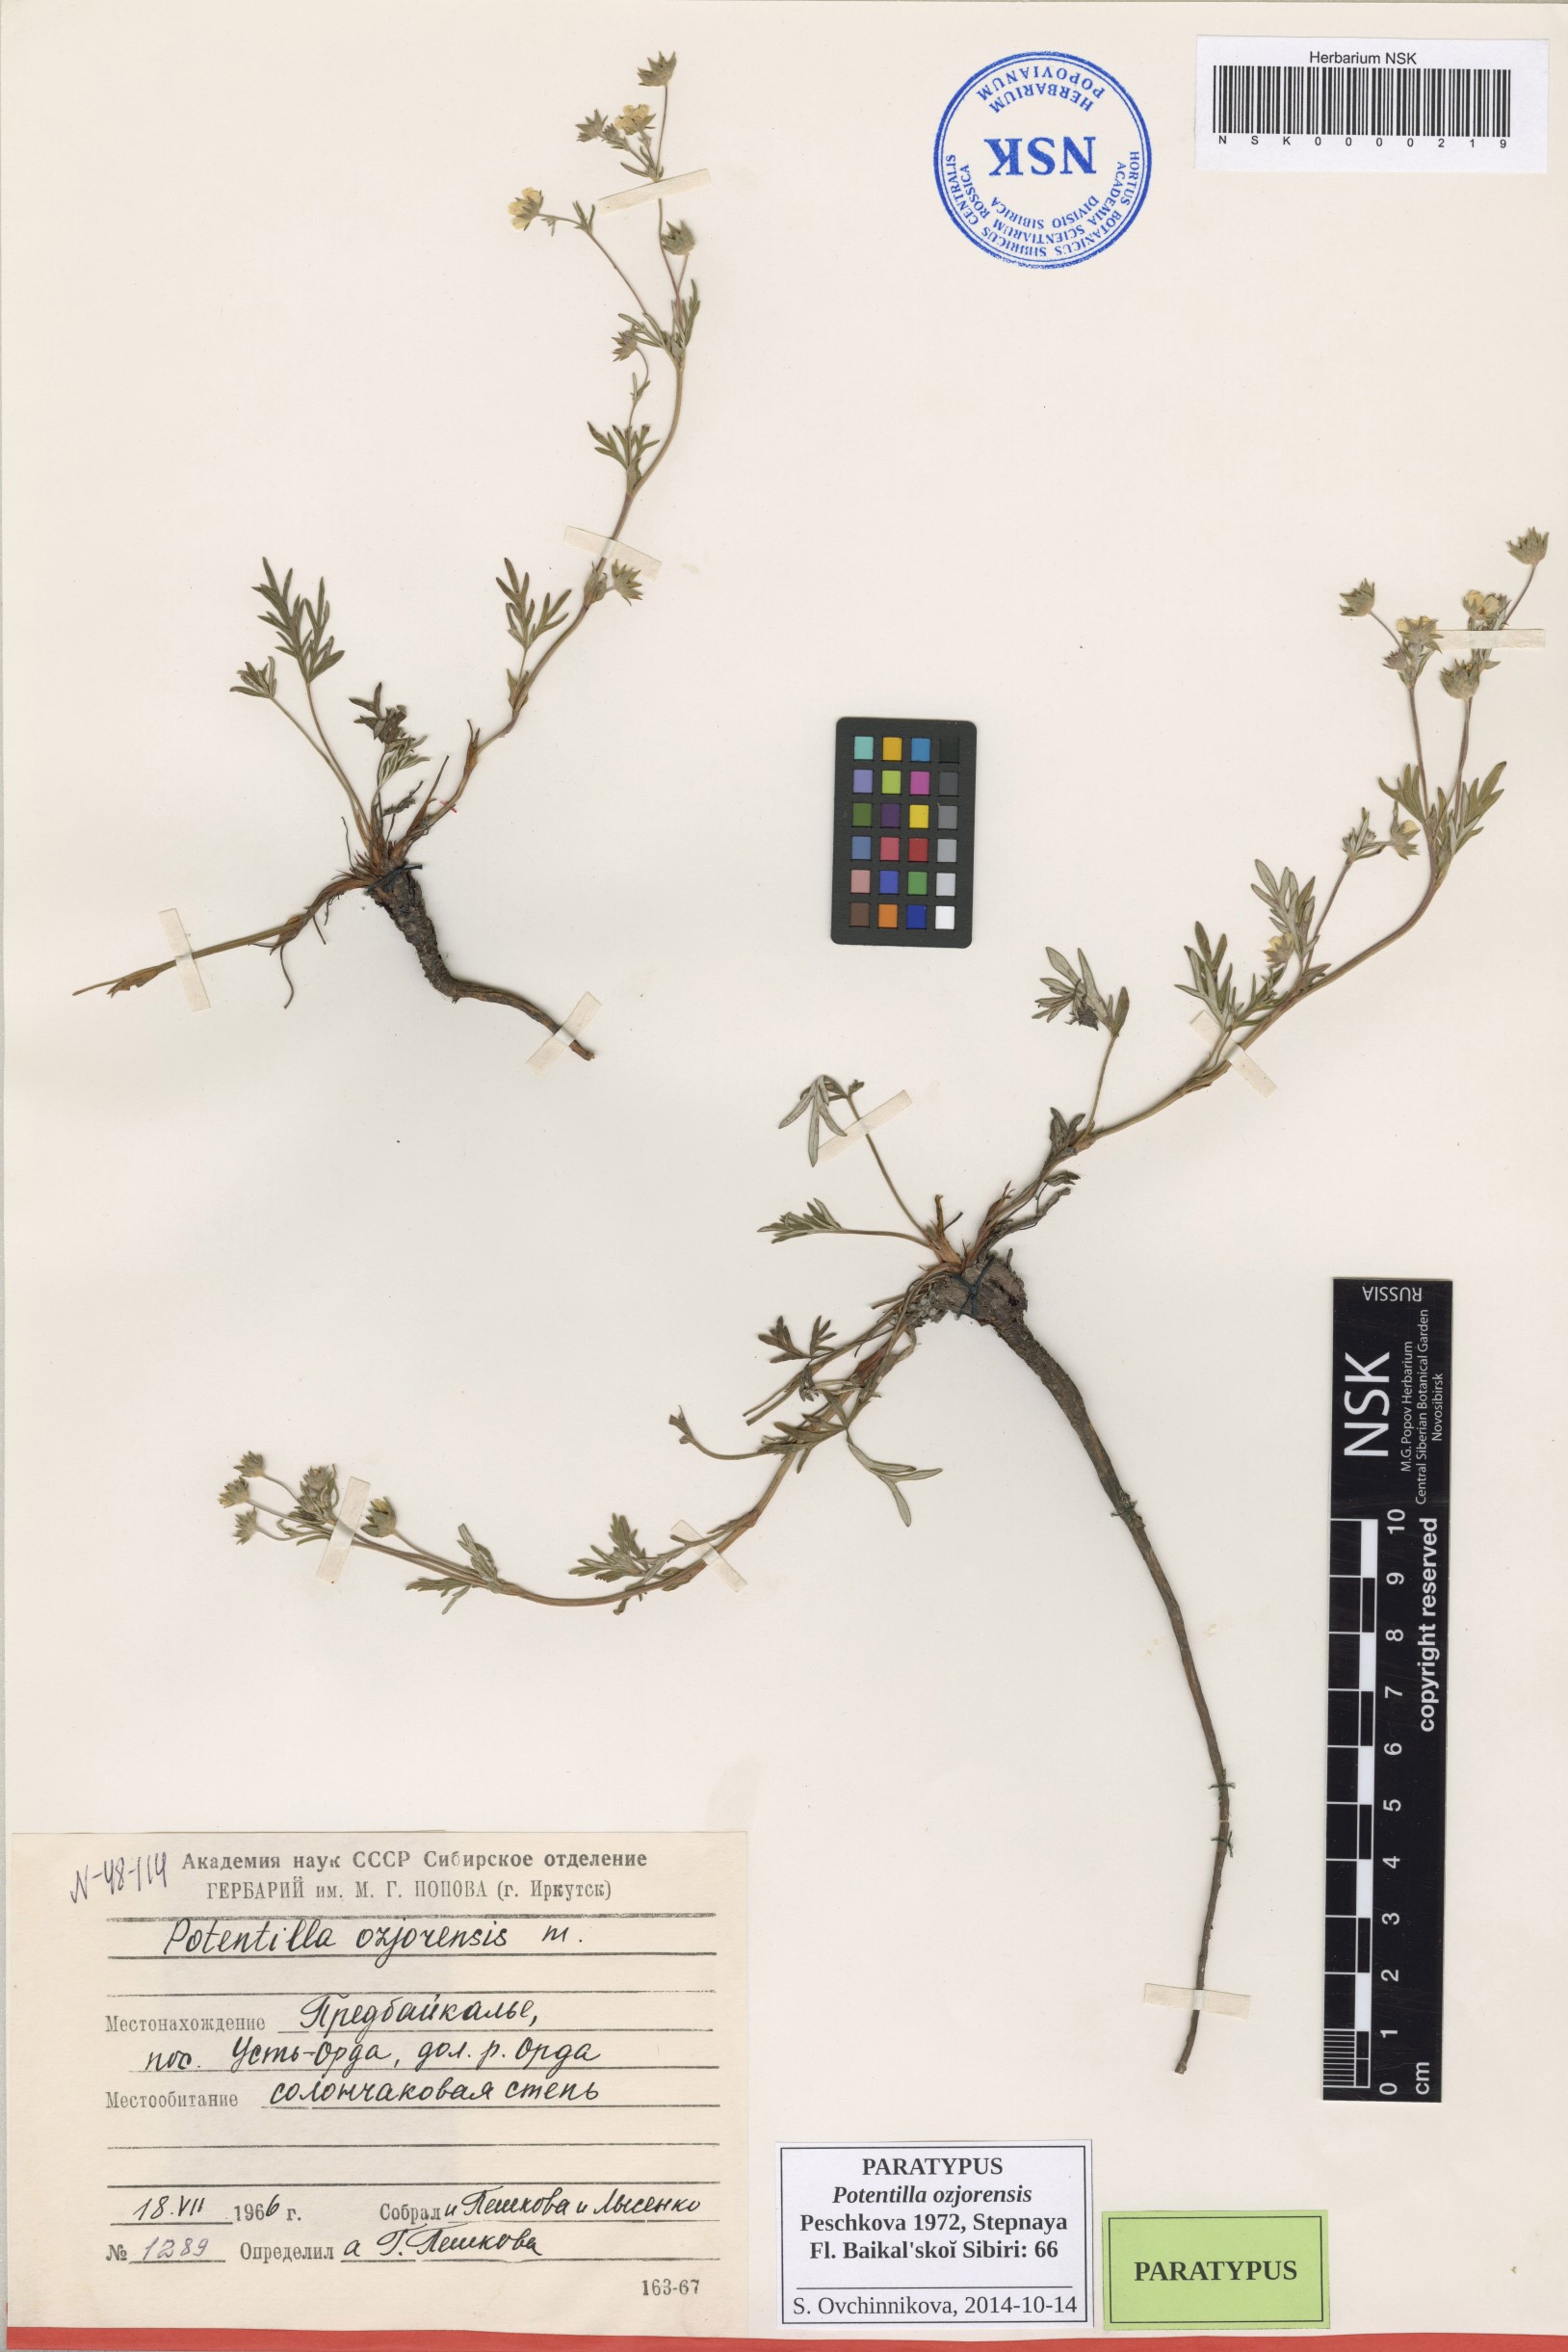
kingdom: Plantae
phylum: Tracheophyta
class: Magnoliopsida
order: Rosales
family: Rosaceae
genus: Potentilla
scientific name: Potentilla ozjorensis
